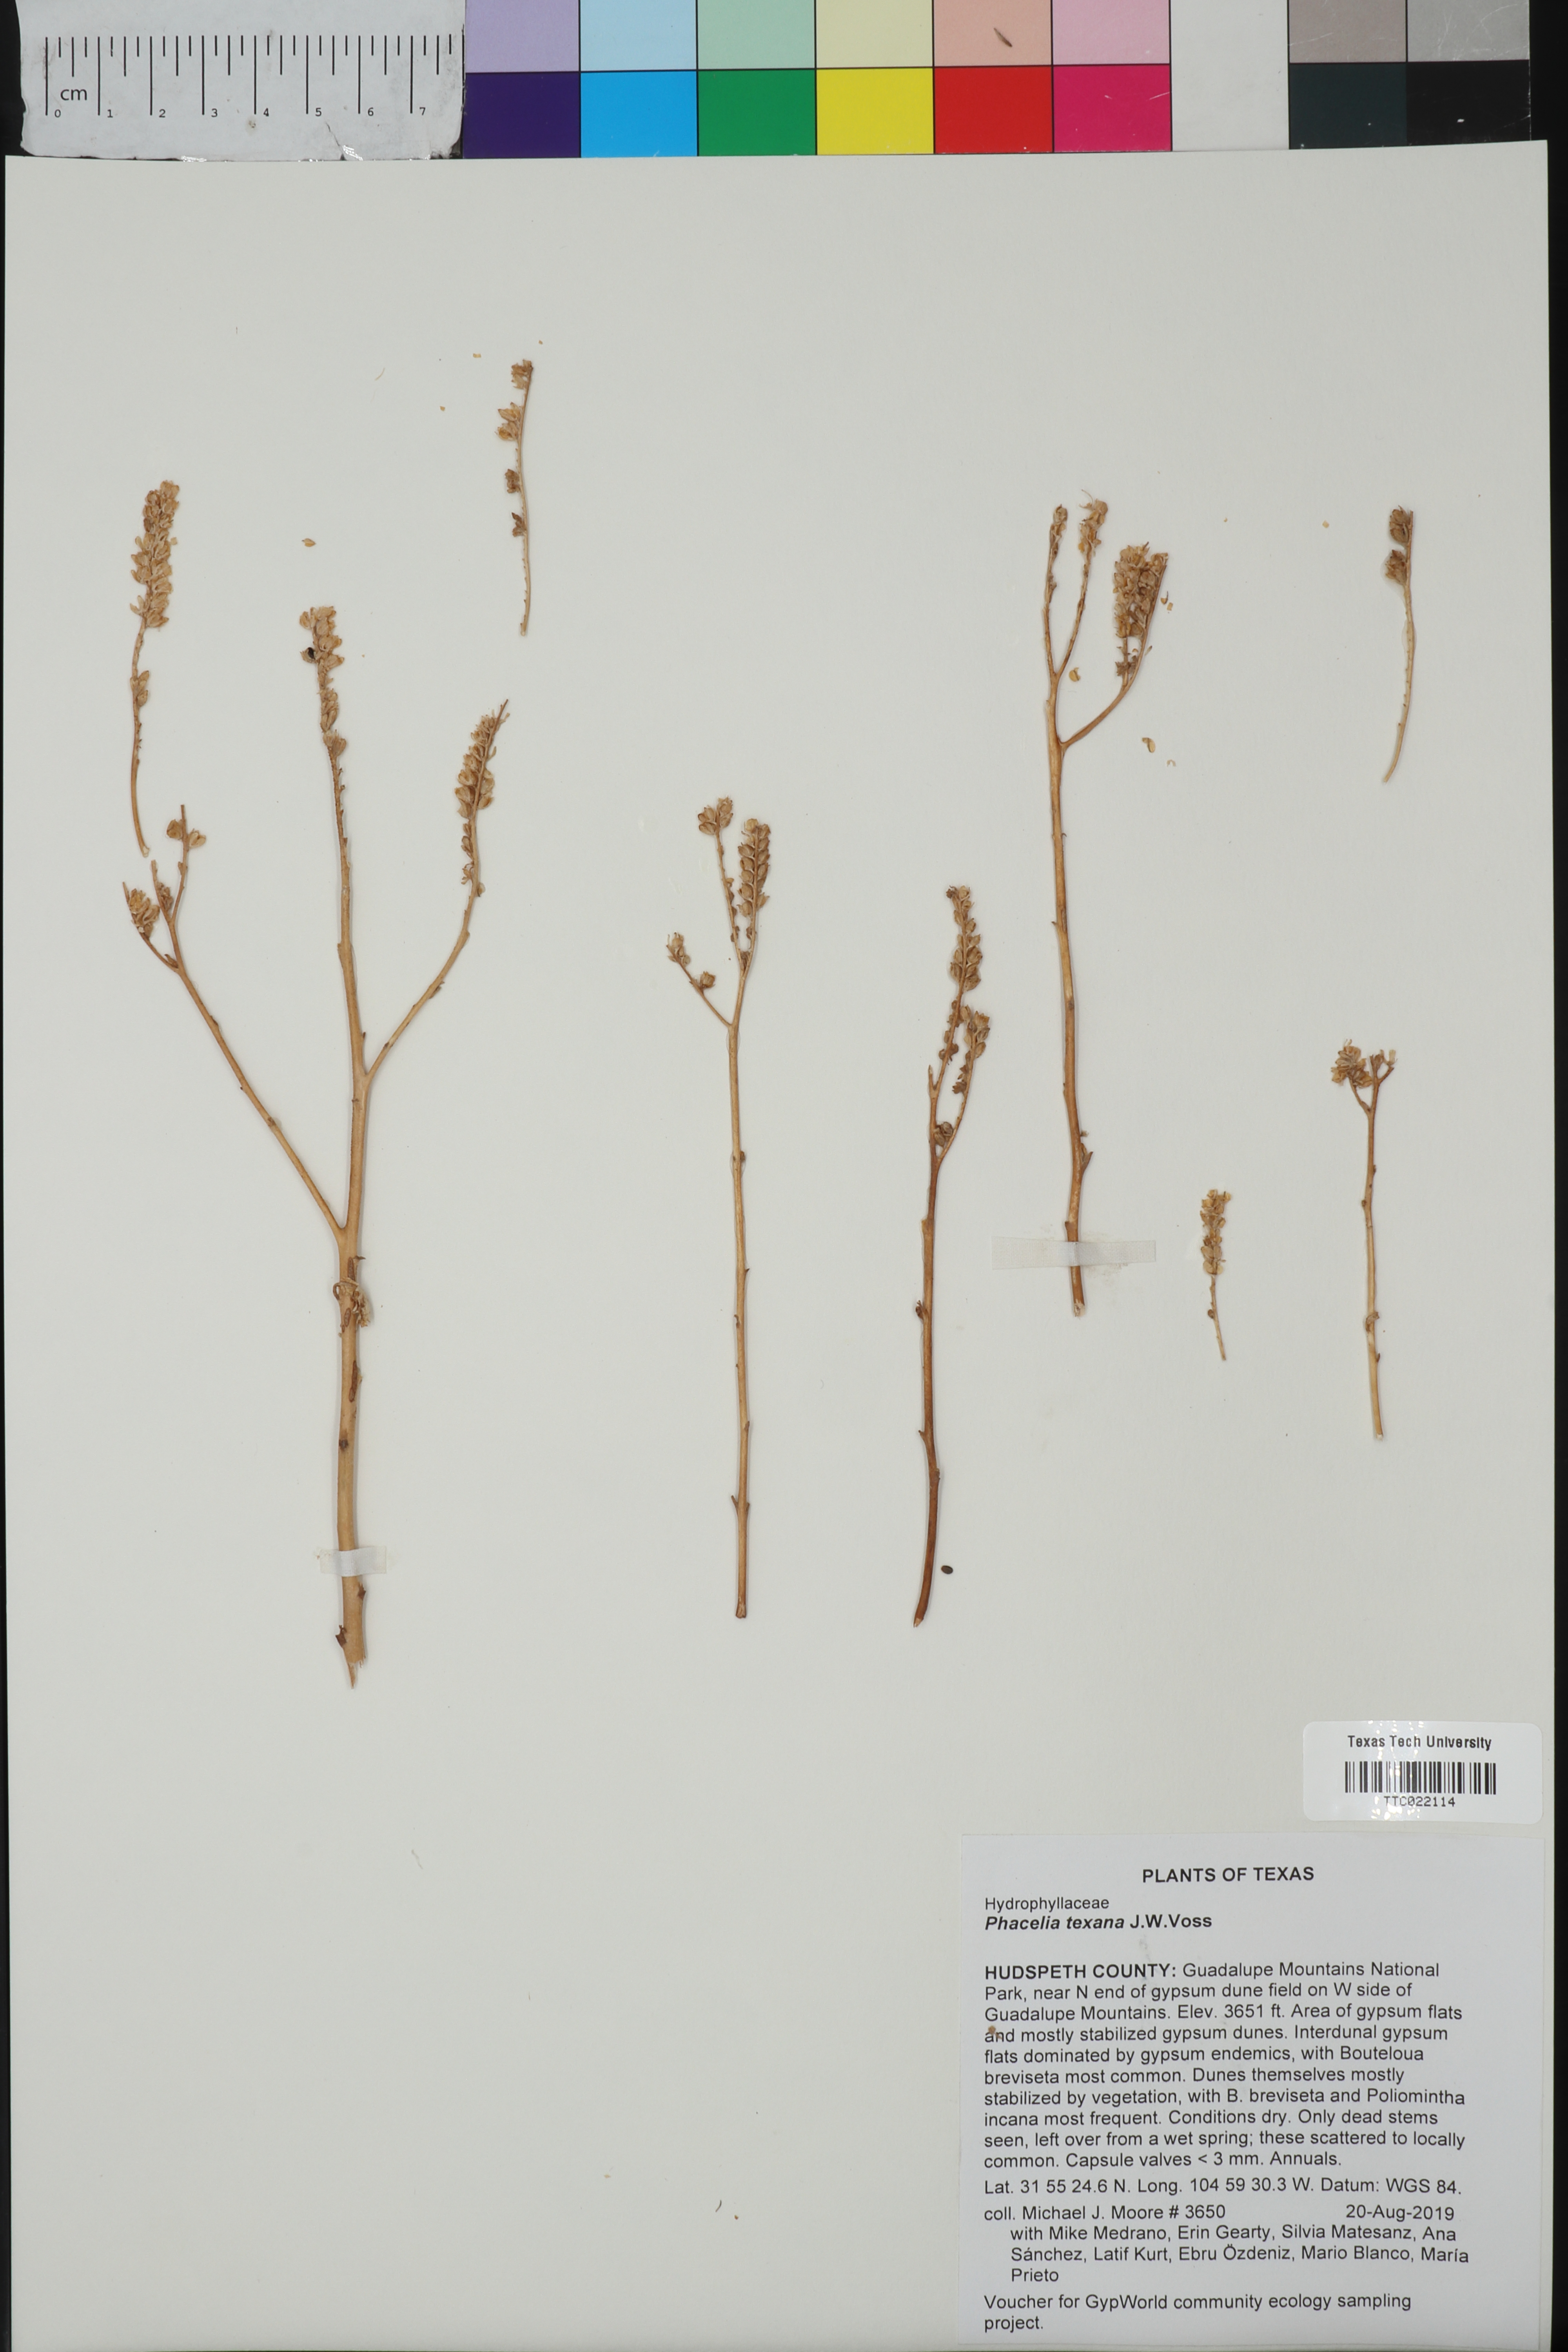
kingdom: Plantae
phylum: Tracheophyta
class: Magnoliopsida
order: Boraginales
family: Hydrophyllaceae
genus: Phacelia
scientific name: Phacelia integrifolia
